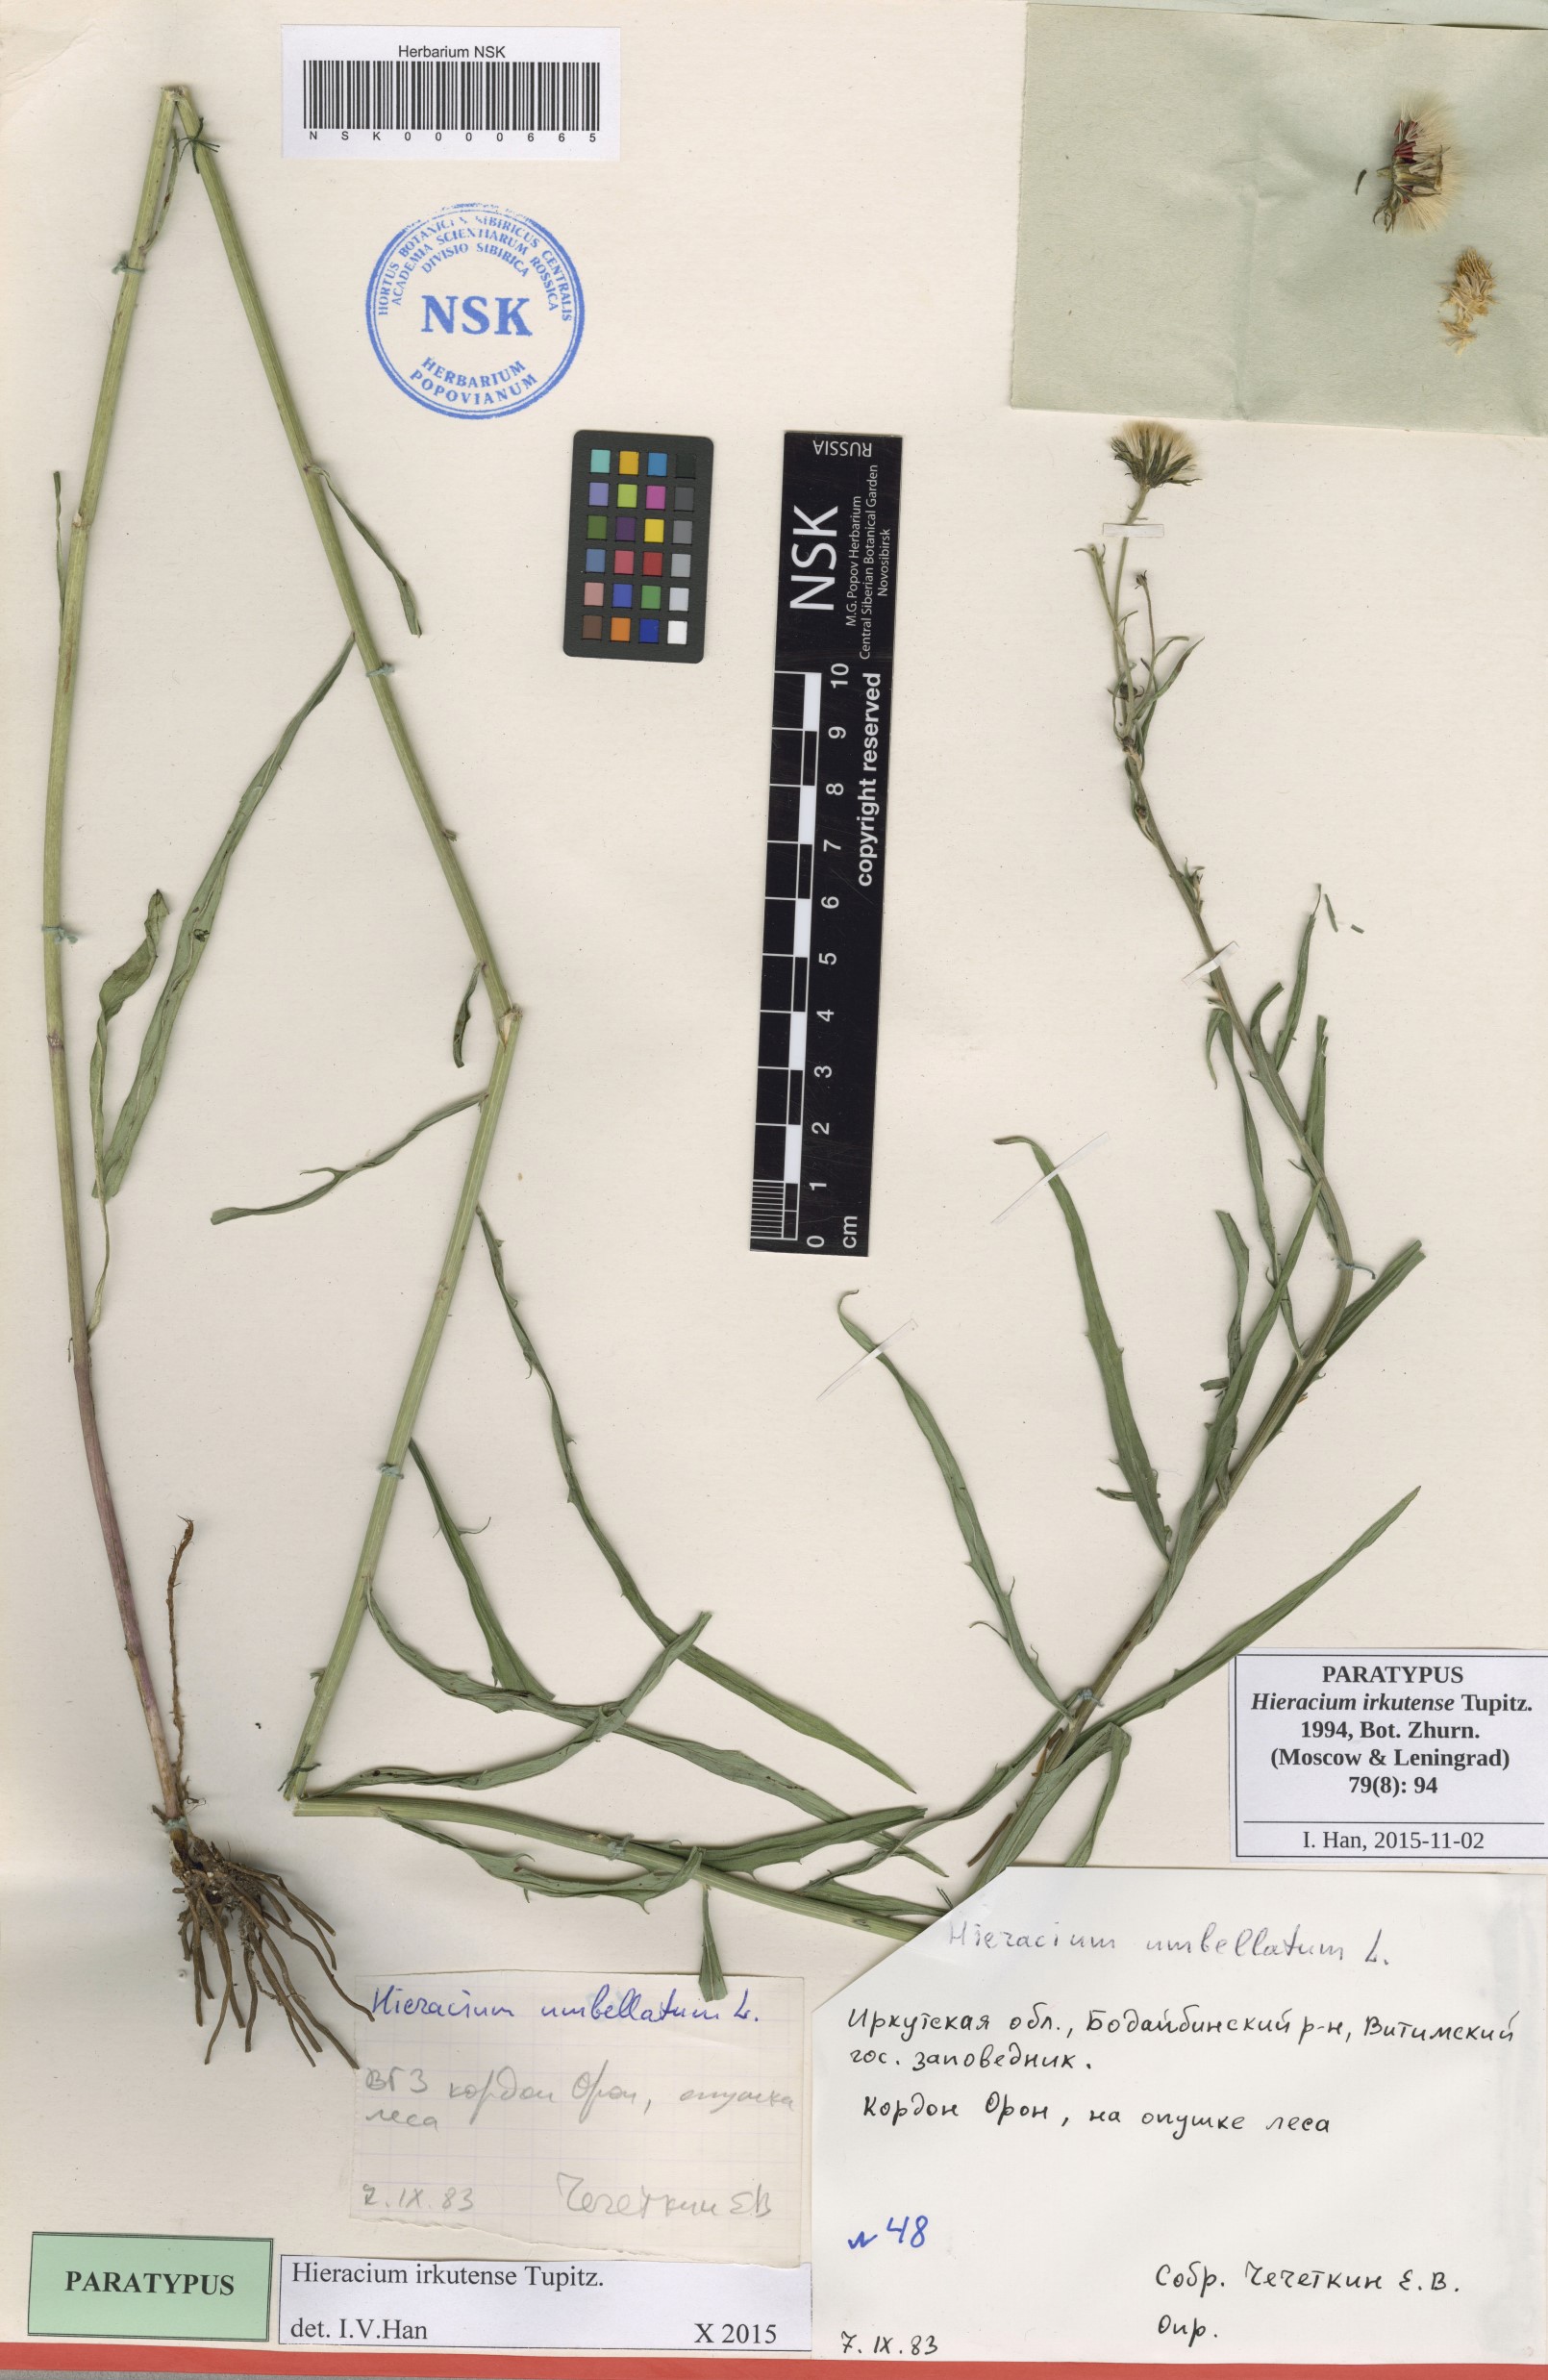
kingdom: Plantae
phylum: Tracheophyta
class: Magnoliopsida
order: Asterales
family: Asteraceae
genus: Hieracium
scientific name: Hieracium irkutense
